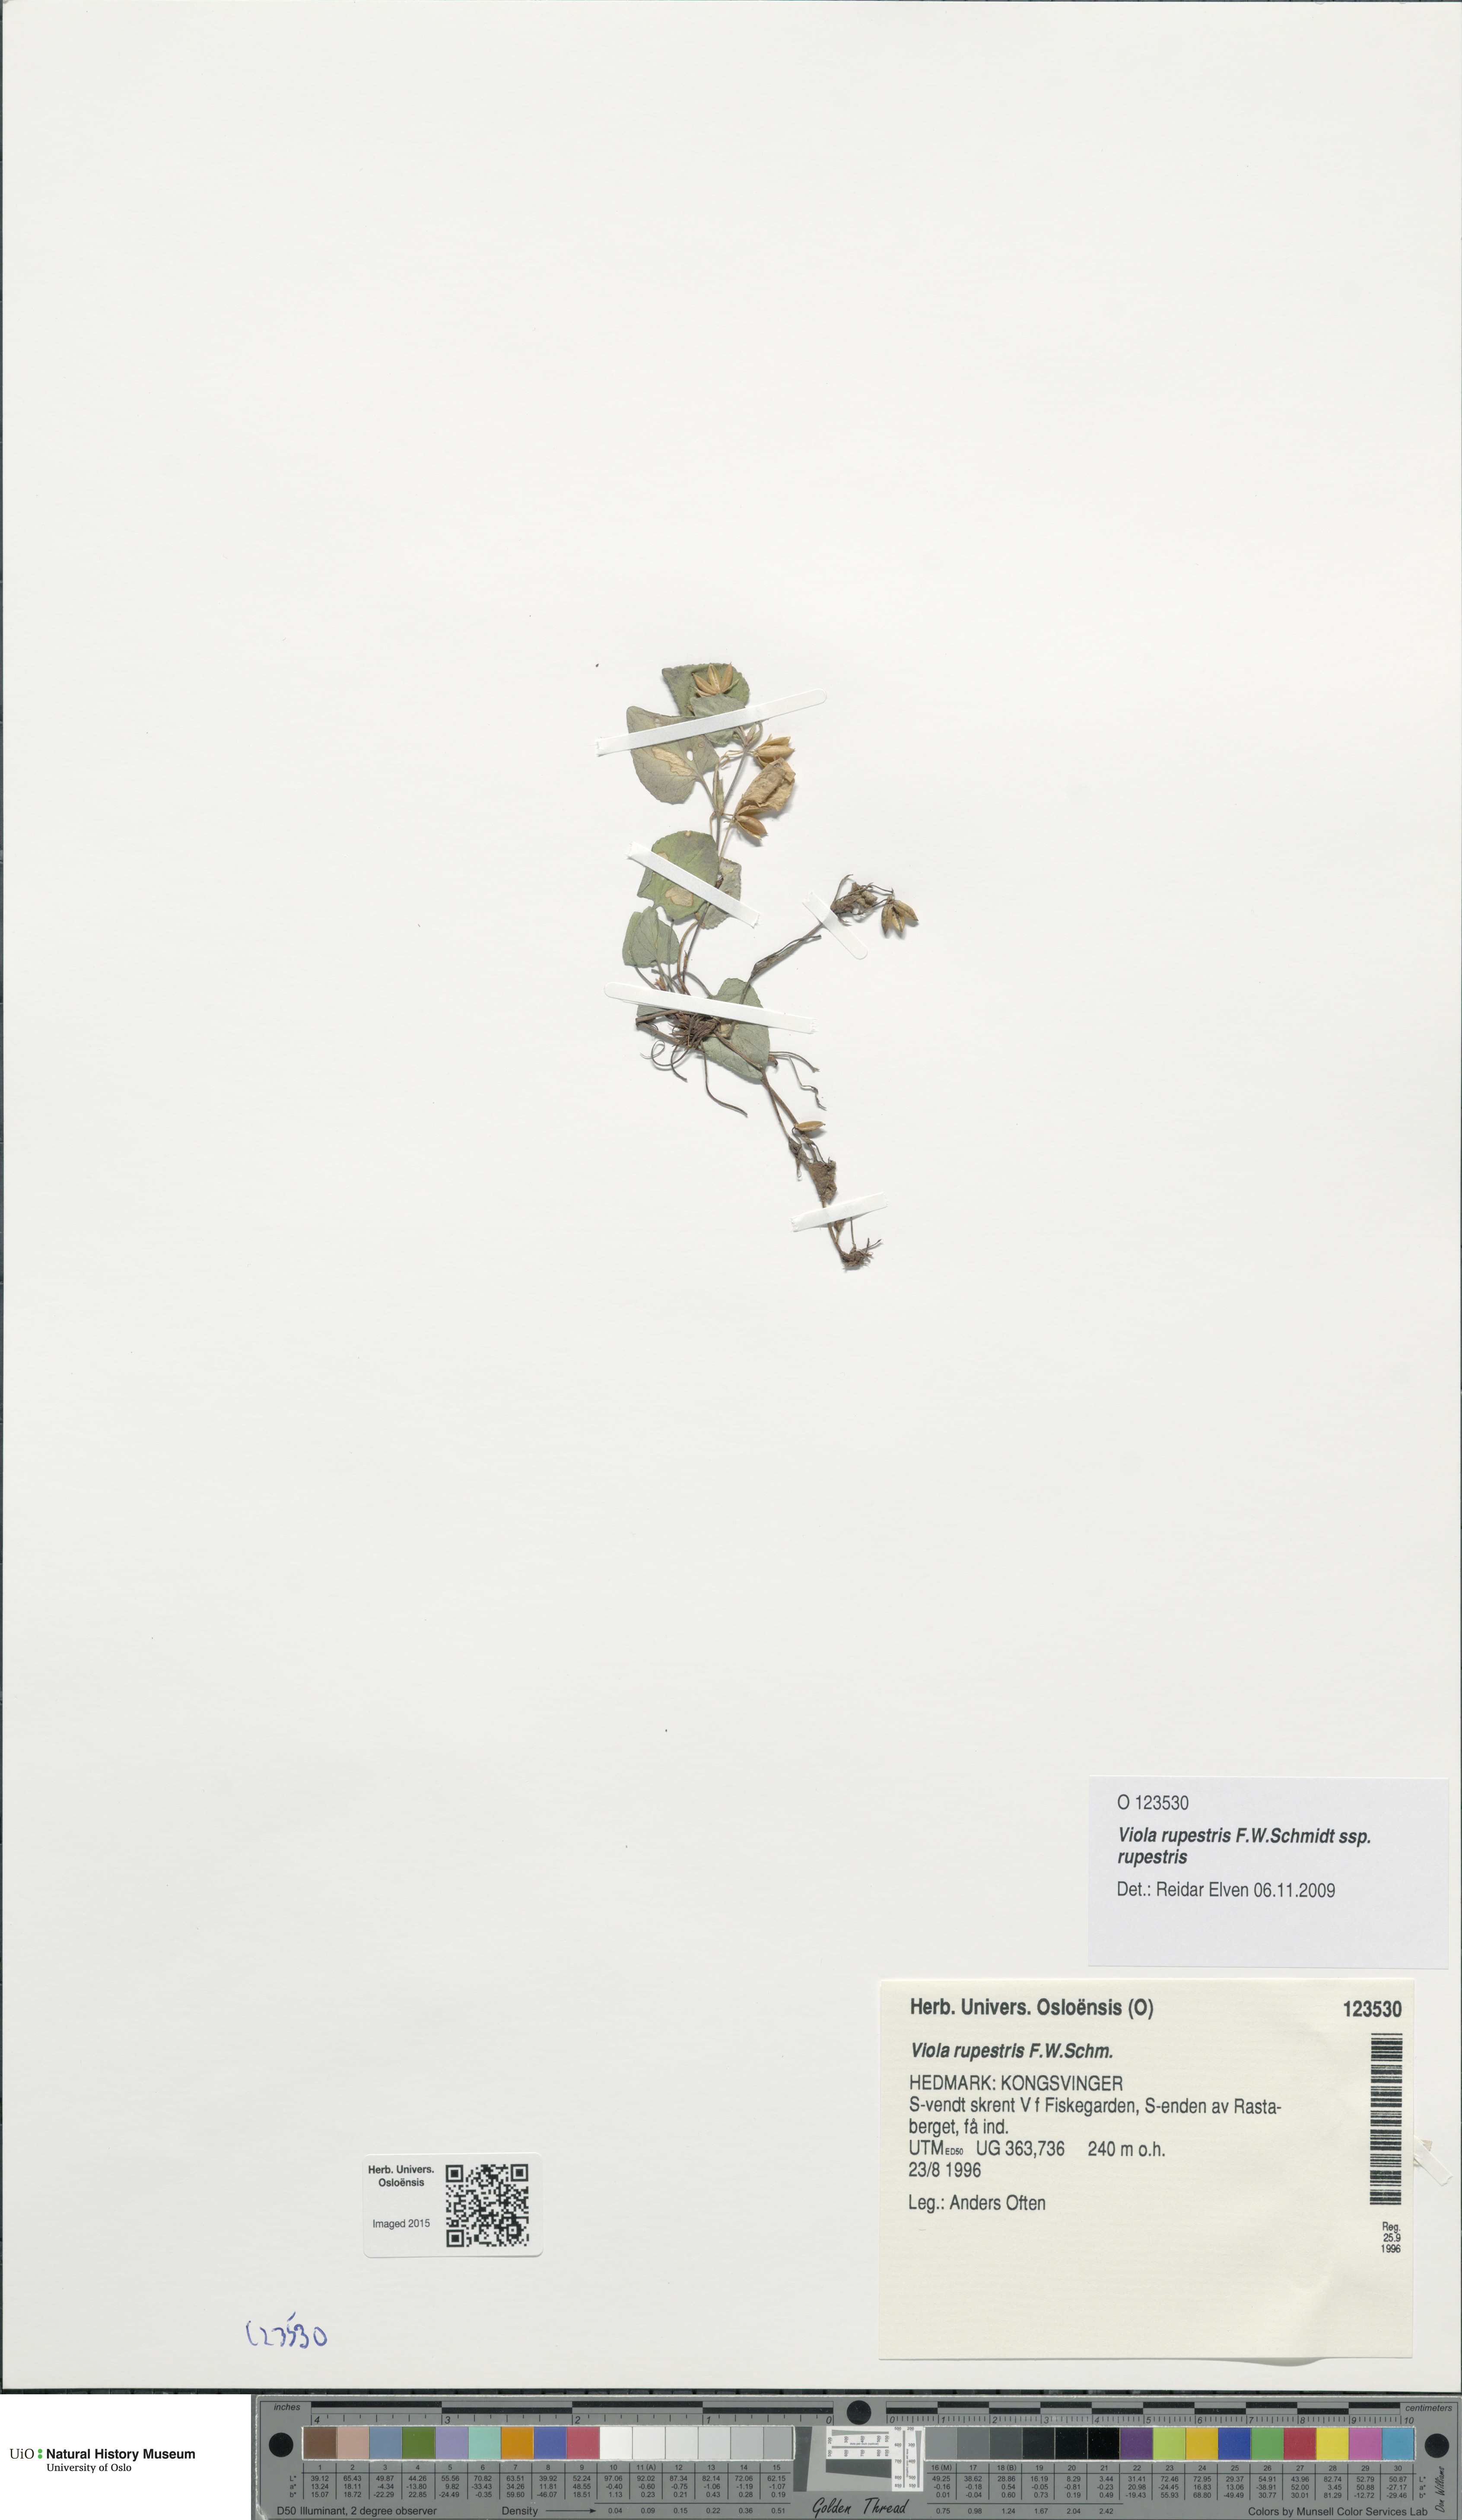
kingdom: Plantae
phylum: Tracheophyta
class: Magnoliopsida
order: Malpighiales
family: Violaceae
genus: Viola
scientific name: Viola rupestris
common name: Teesdale violet
